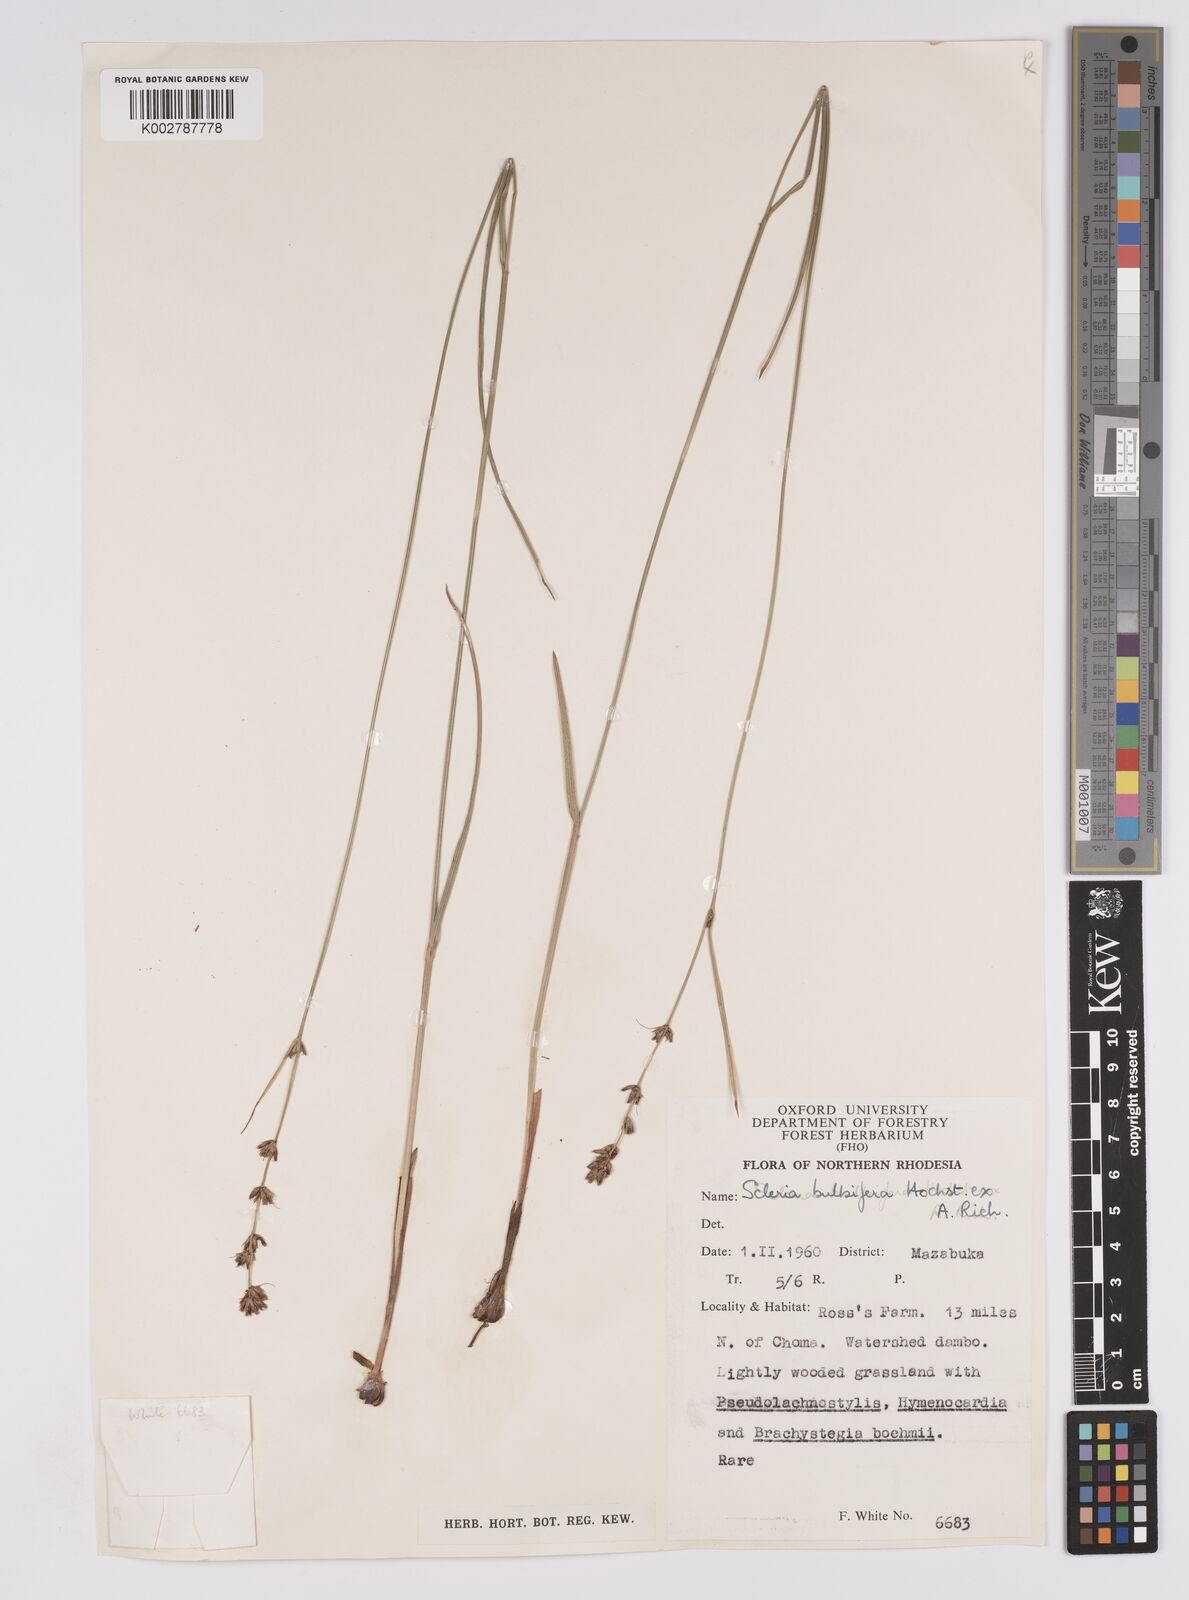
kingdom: Plantae
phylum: Tracheophyta
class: Liliopsida
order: Poales
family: Cyperaceae
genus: Scleria
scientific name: Scleria bulbifera
